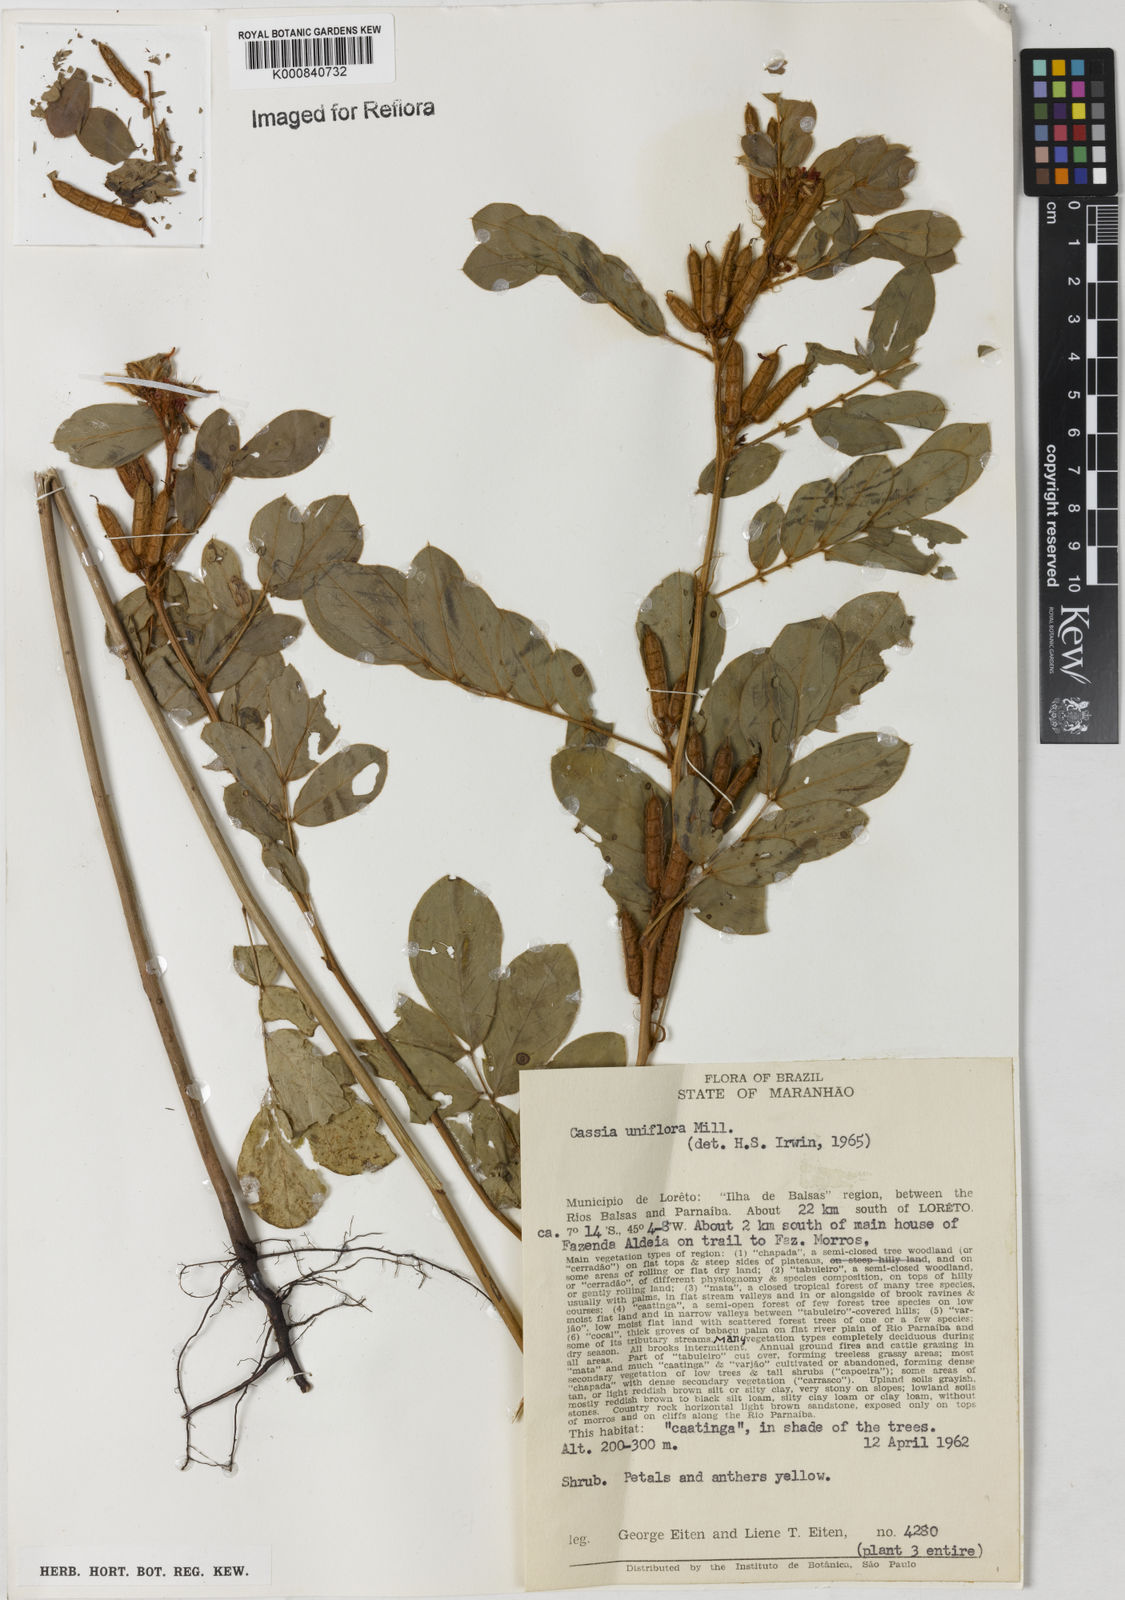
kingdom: Plantae
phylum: Tracheophyta
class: Magnoliopsida
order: Fabales
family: Fabaceae
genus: Senna
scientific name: Senna uniflora
